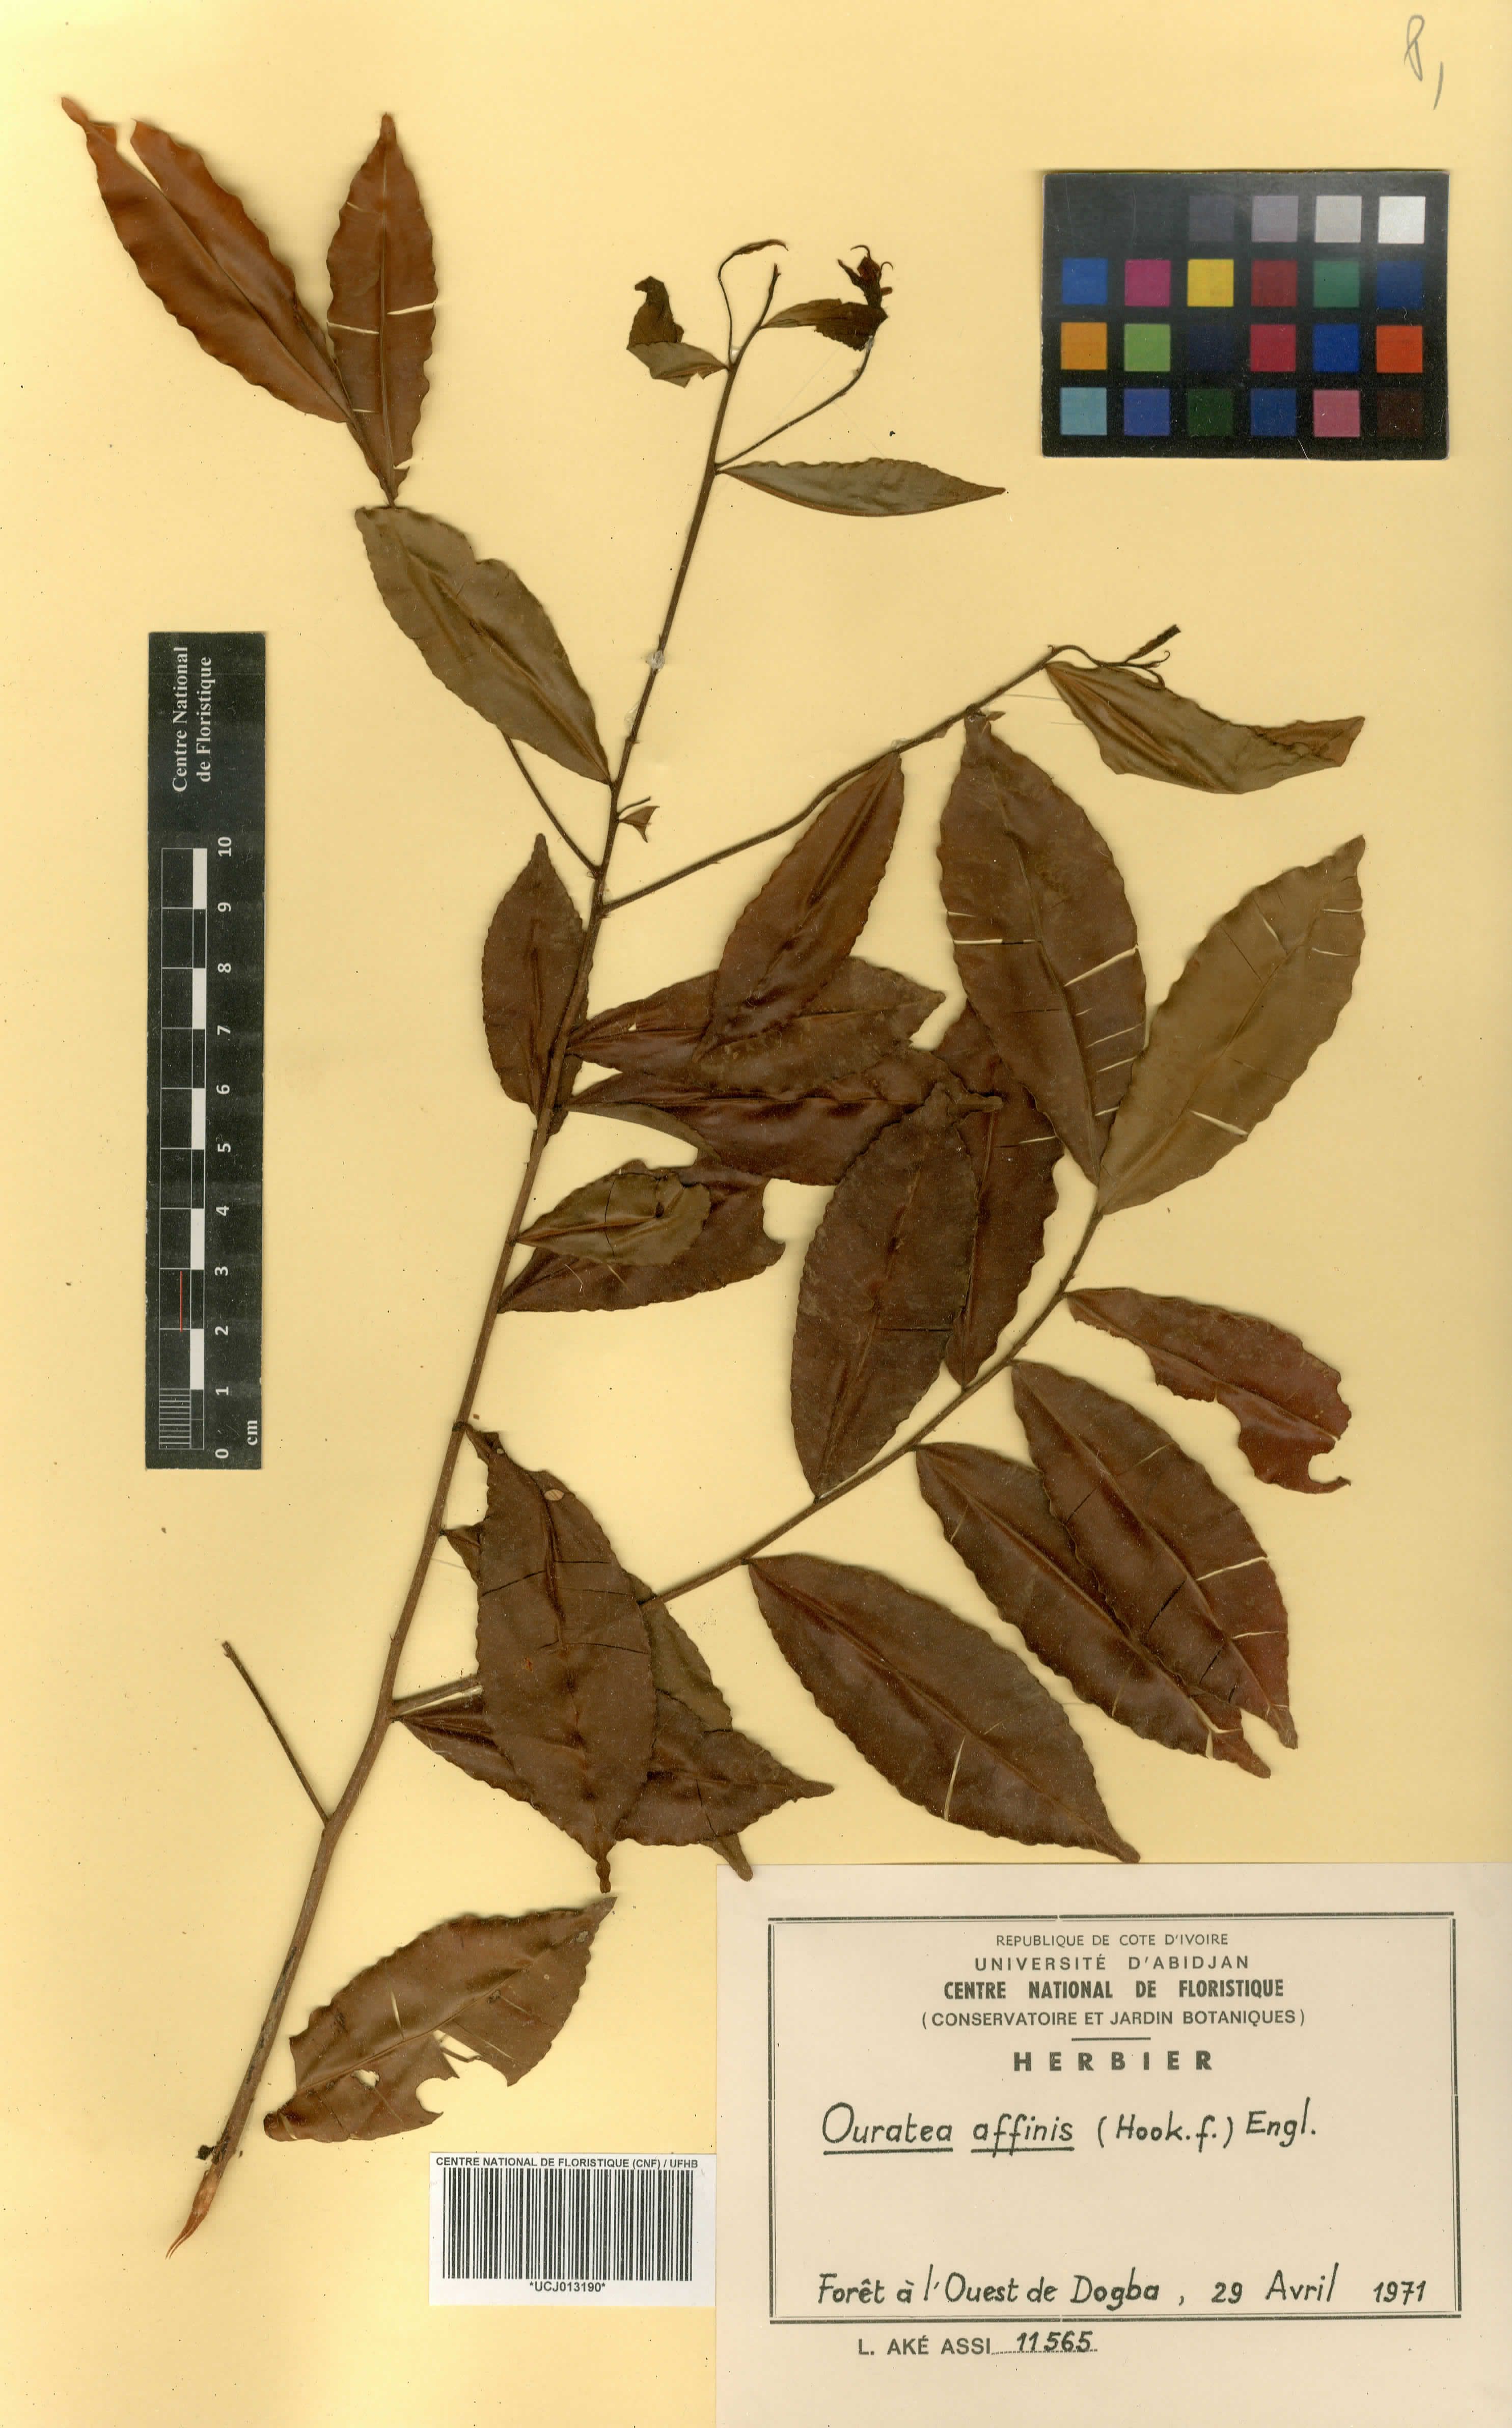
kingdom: Plantae
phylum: Tracheophyta
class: Magnoliopsida
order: Malpighiales
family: Ochnaceae
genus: Rhabdophyllum
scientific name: Rhabdophyllum affine
